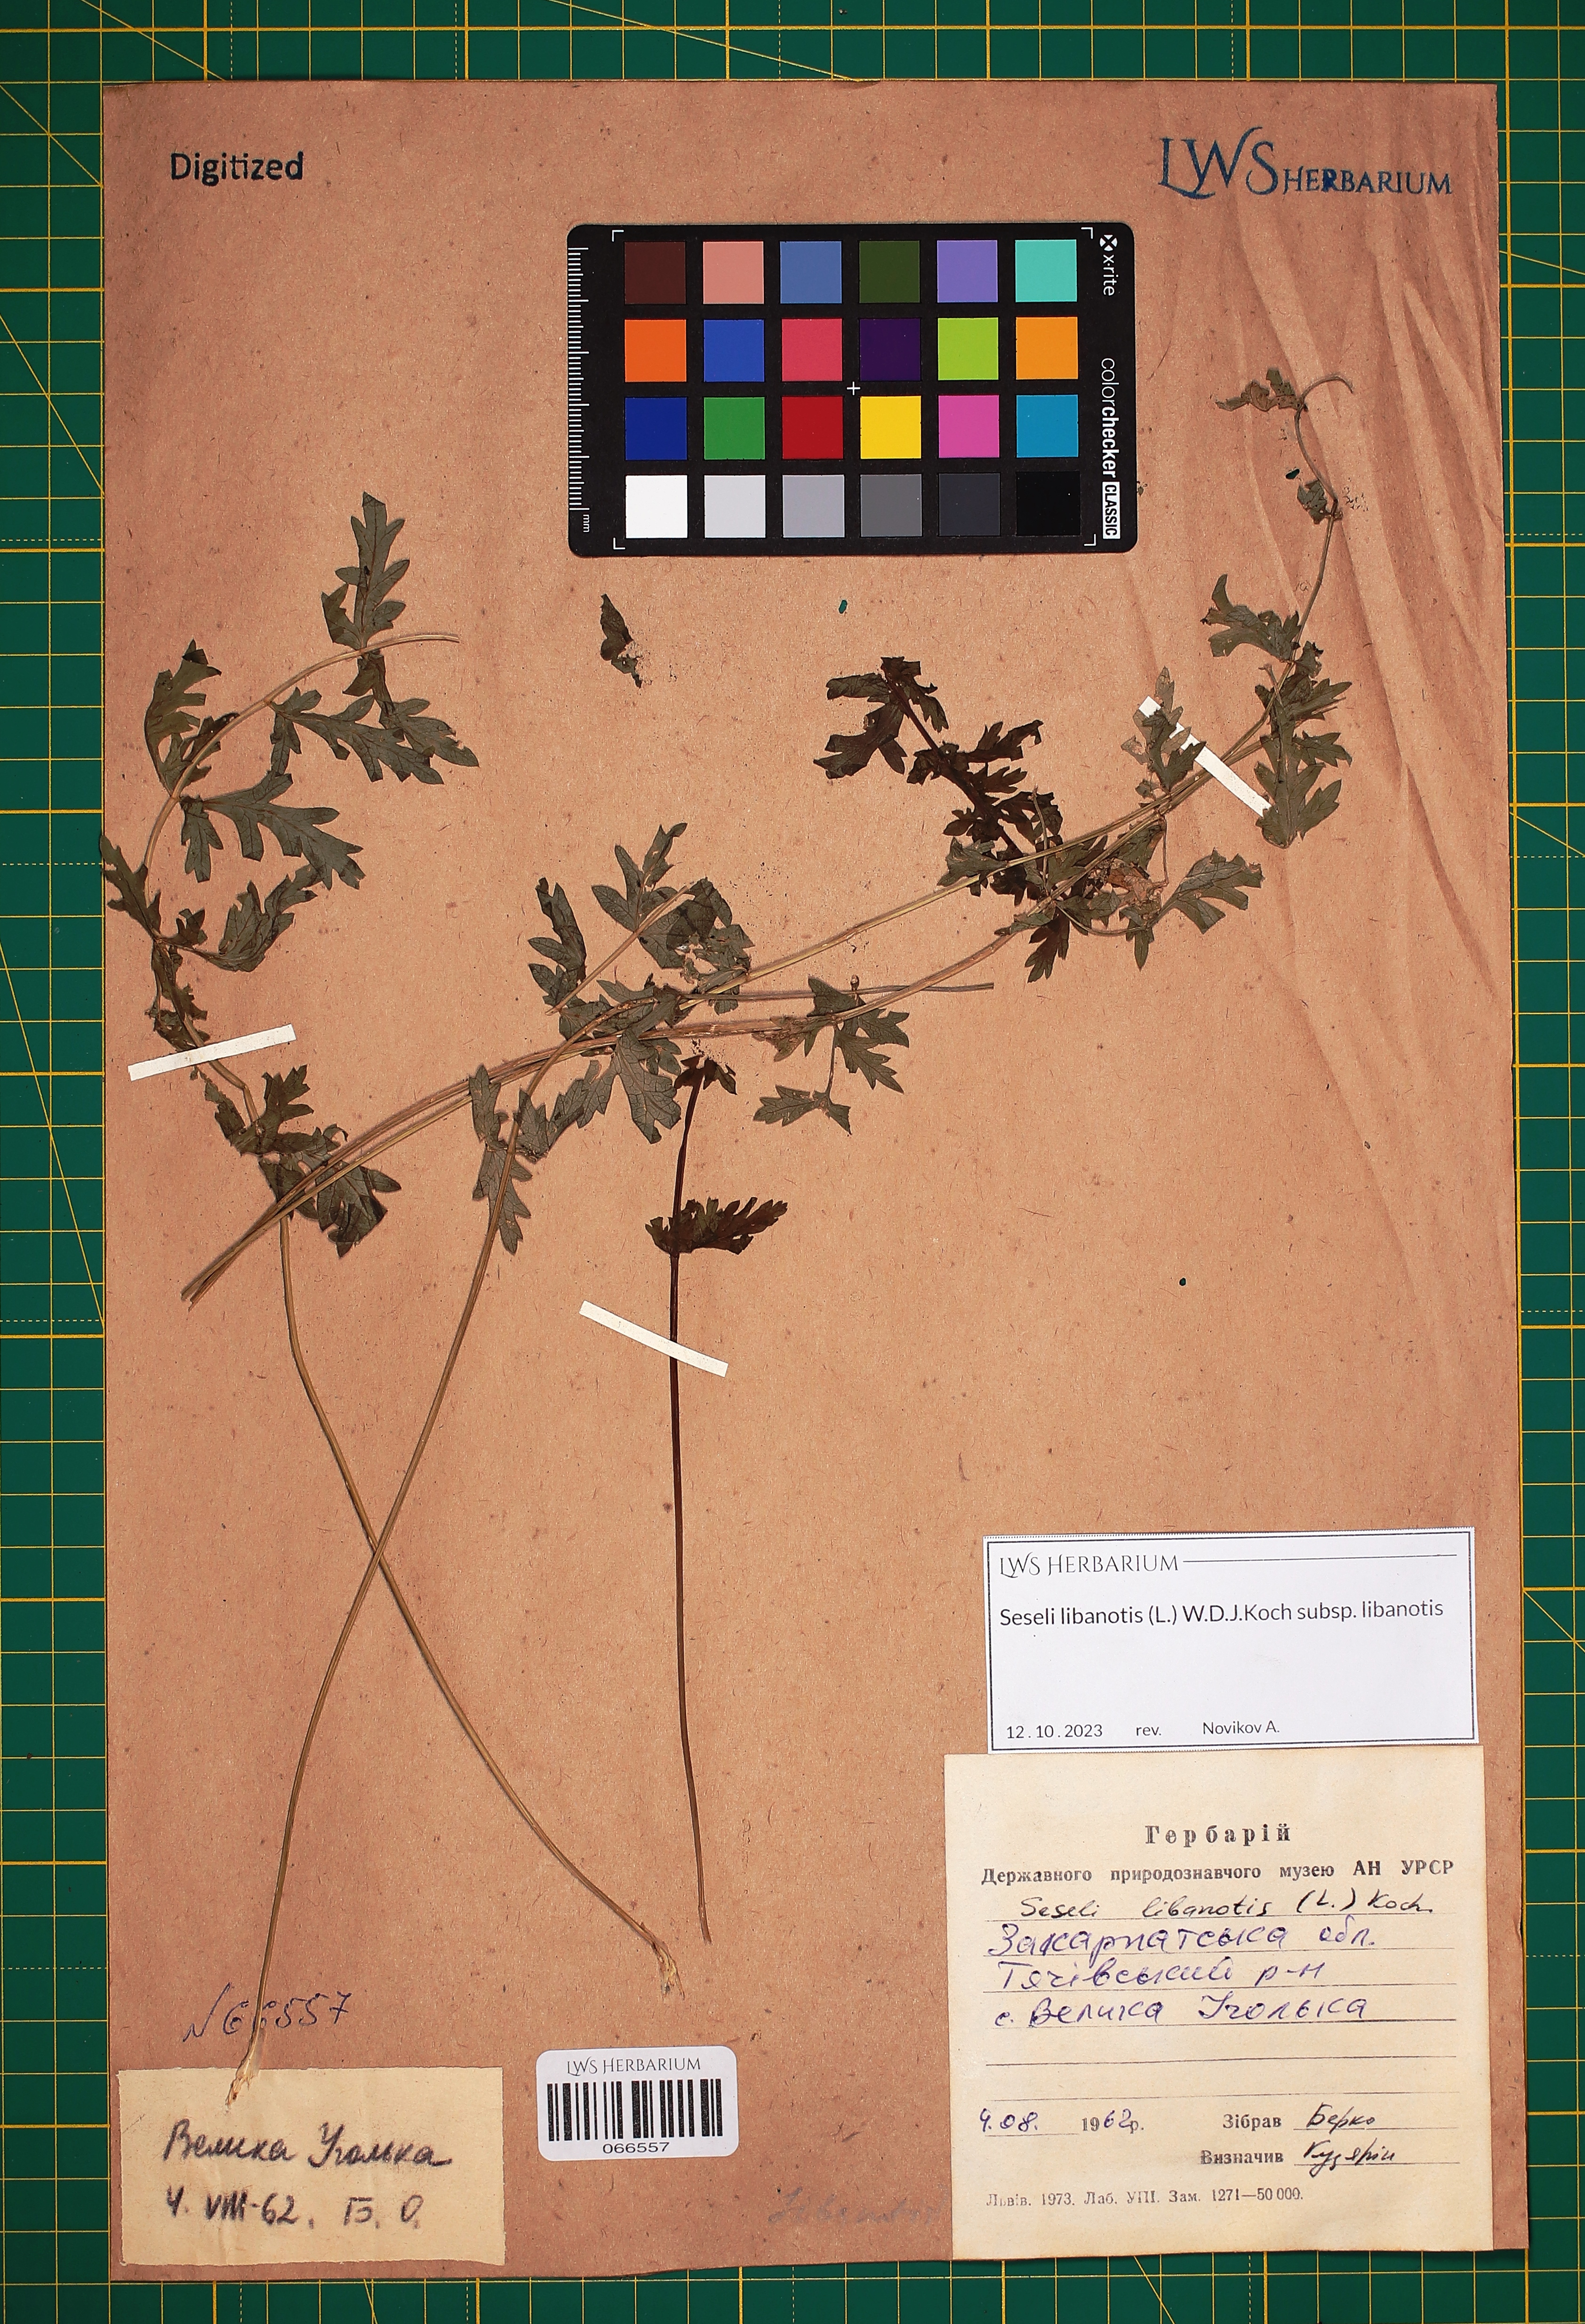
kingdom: Plantae
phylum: Tracheophyta
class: Magnoliopsida
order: Apiales
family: Apiaceae
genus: Seseli
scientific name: Seseli libanotis
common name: Mooncarrot
